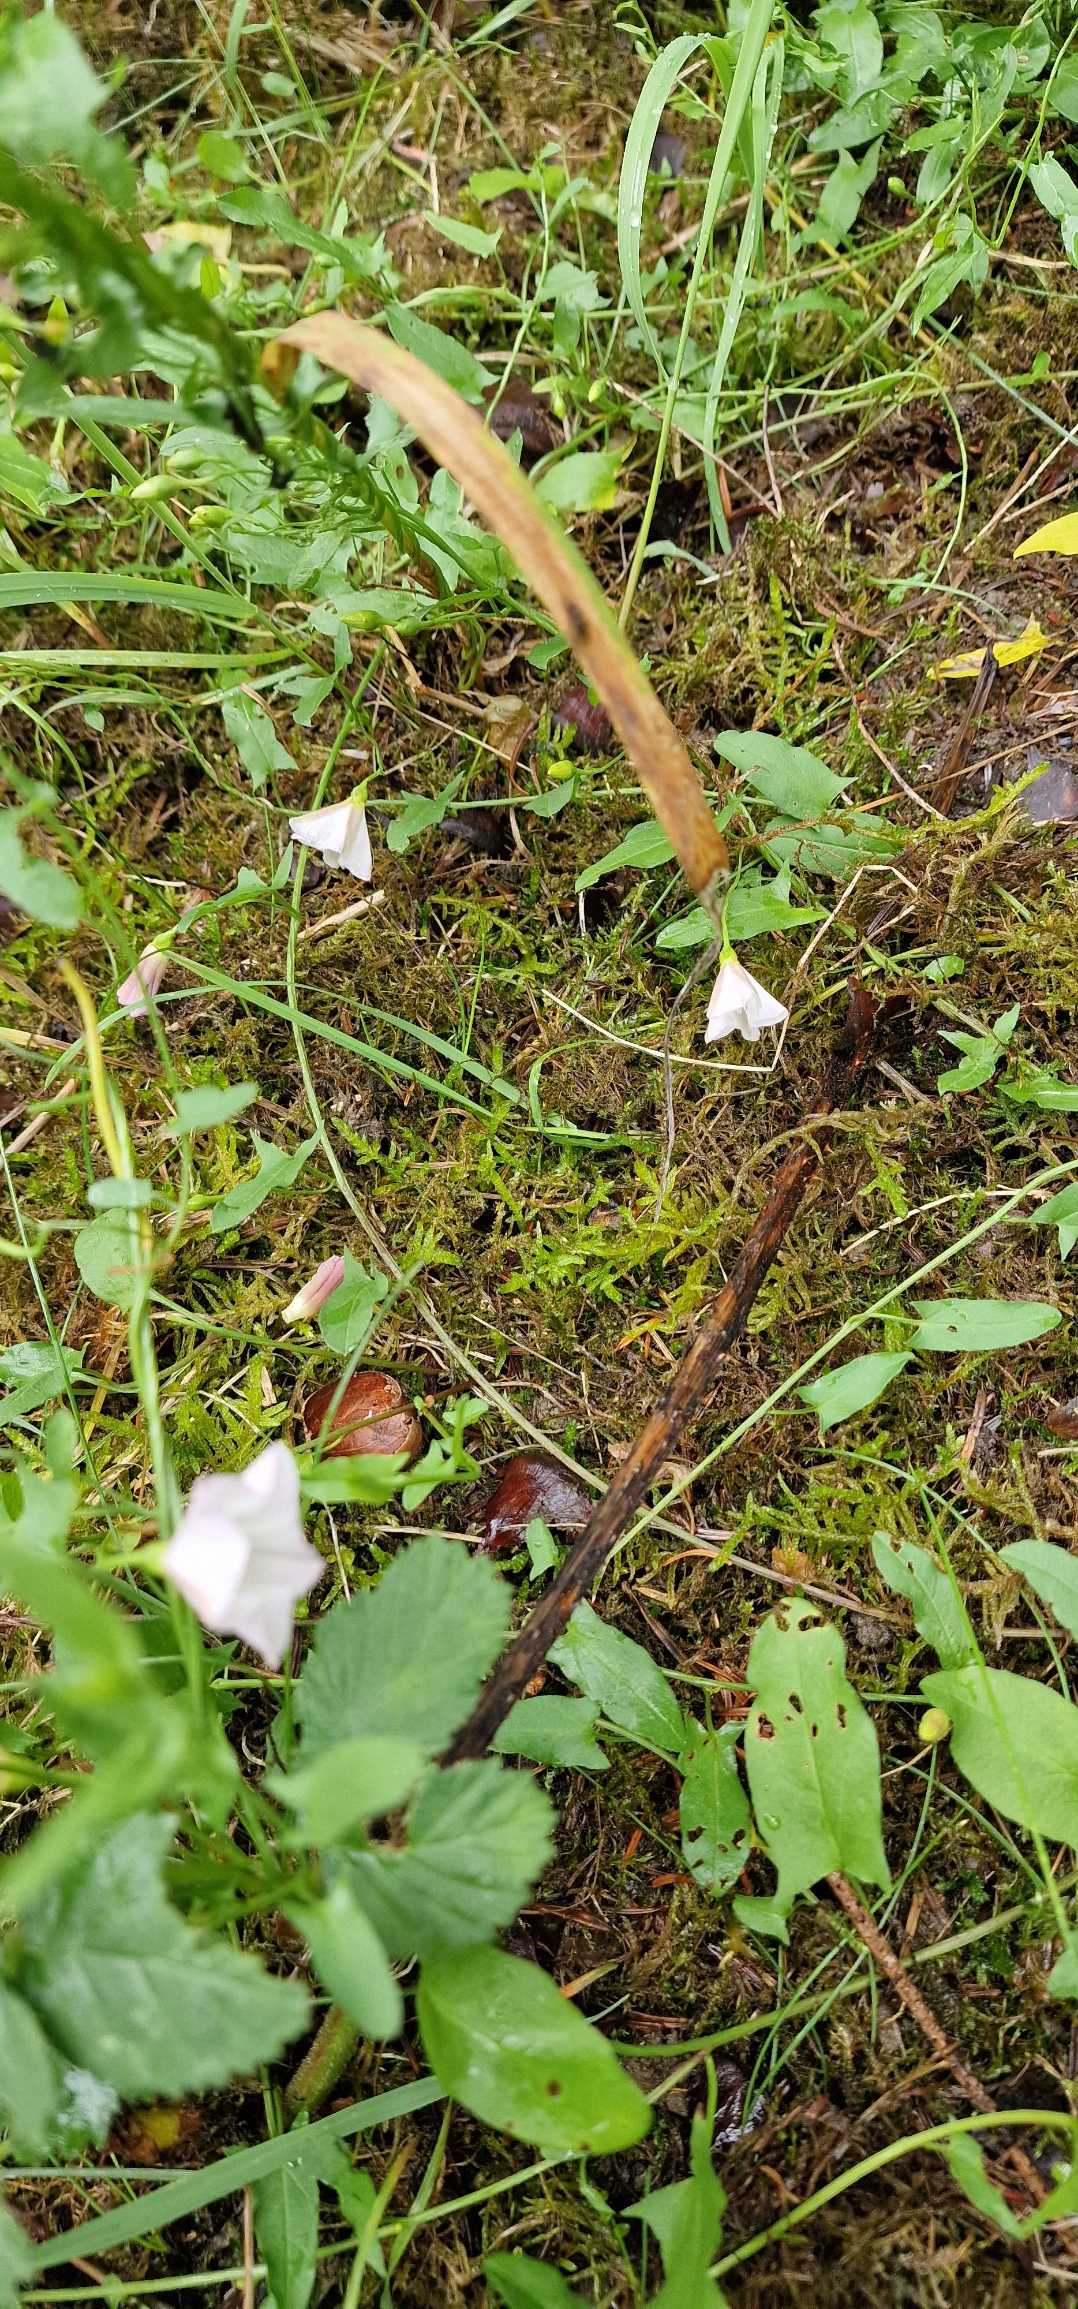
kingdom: Plantae
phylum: Tracheophyta
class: Magnoliopsida
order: Solanales
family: Convolvulaceae
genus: Convolvulus
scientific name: Convolvulus arvensis
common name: Ager-snerle
